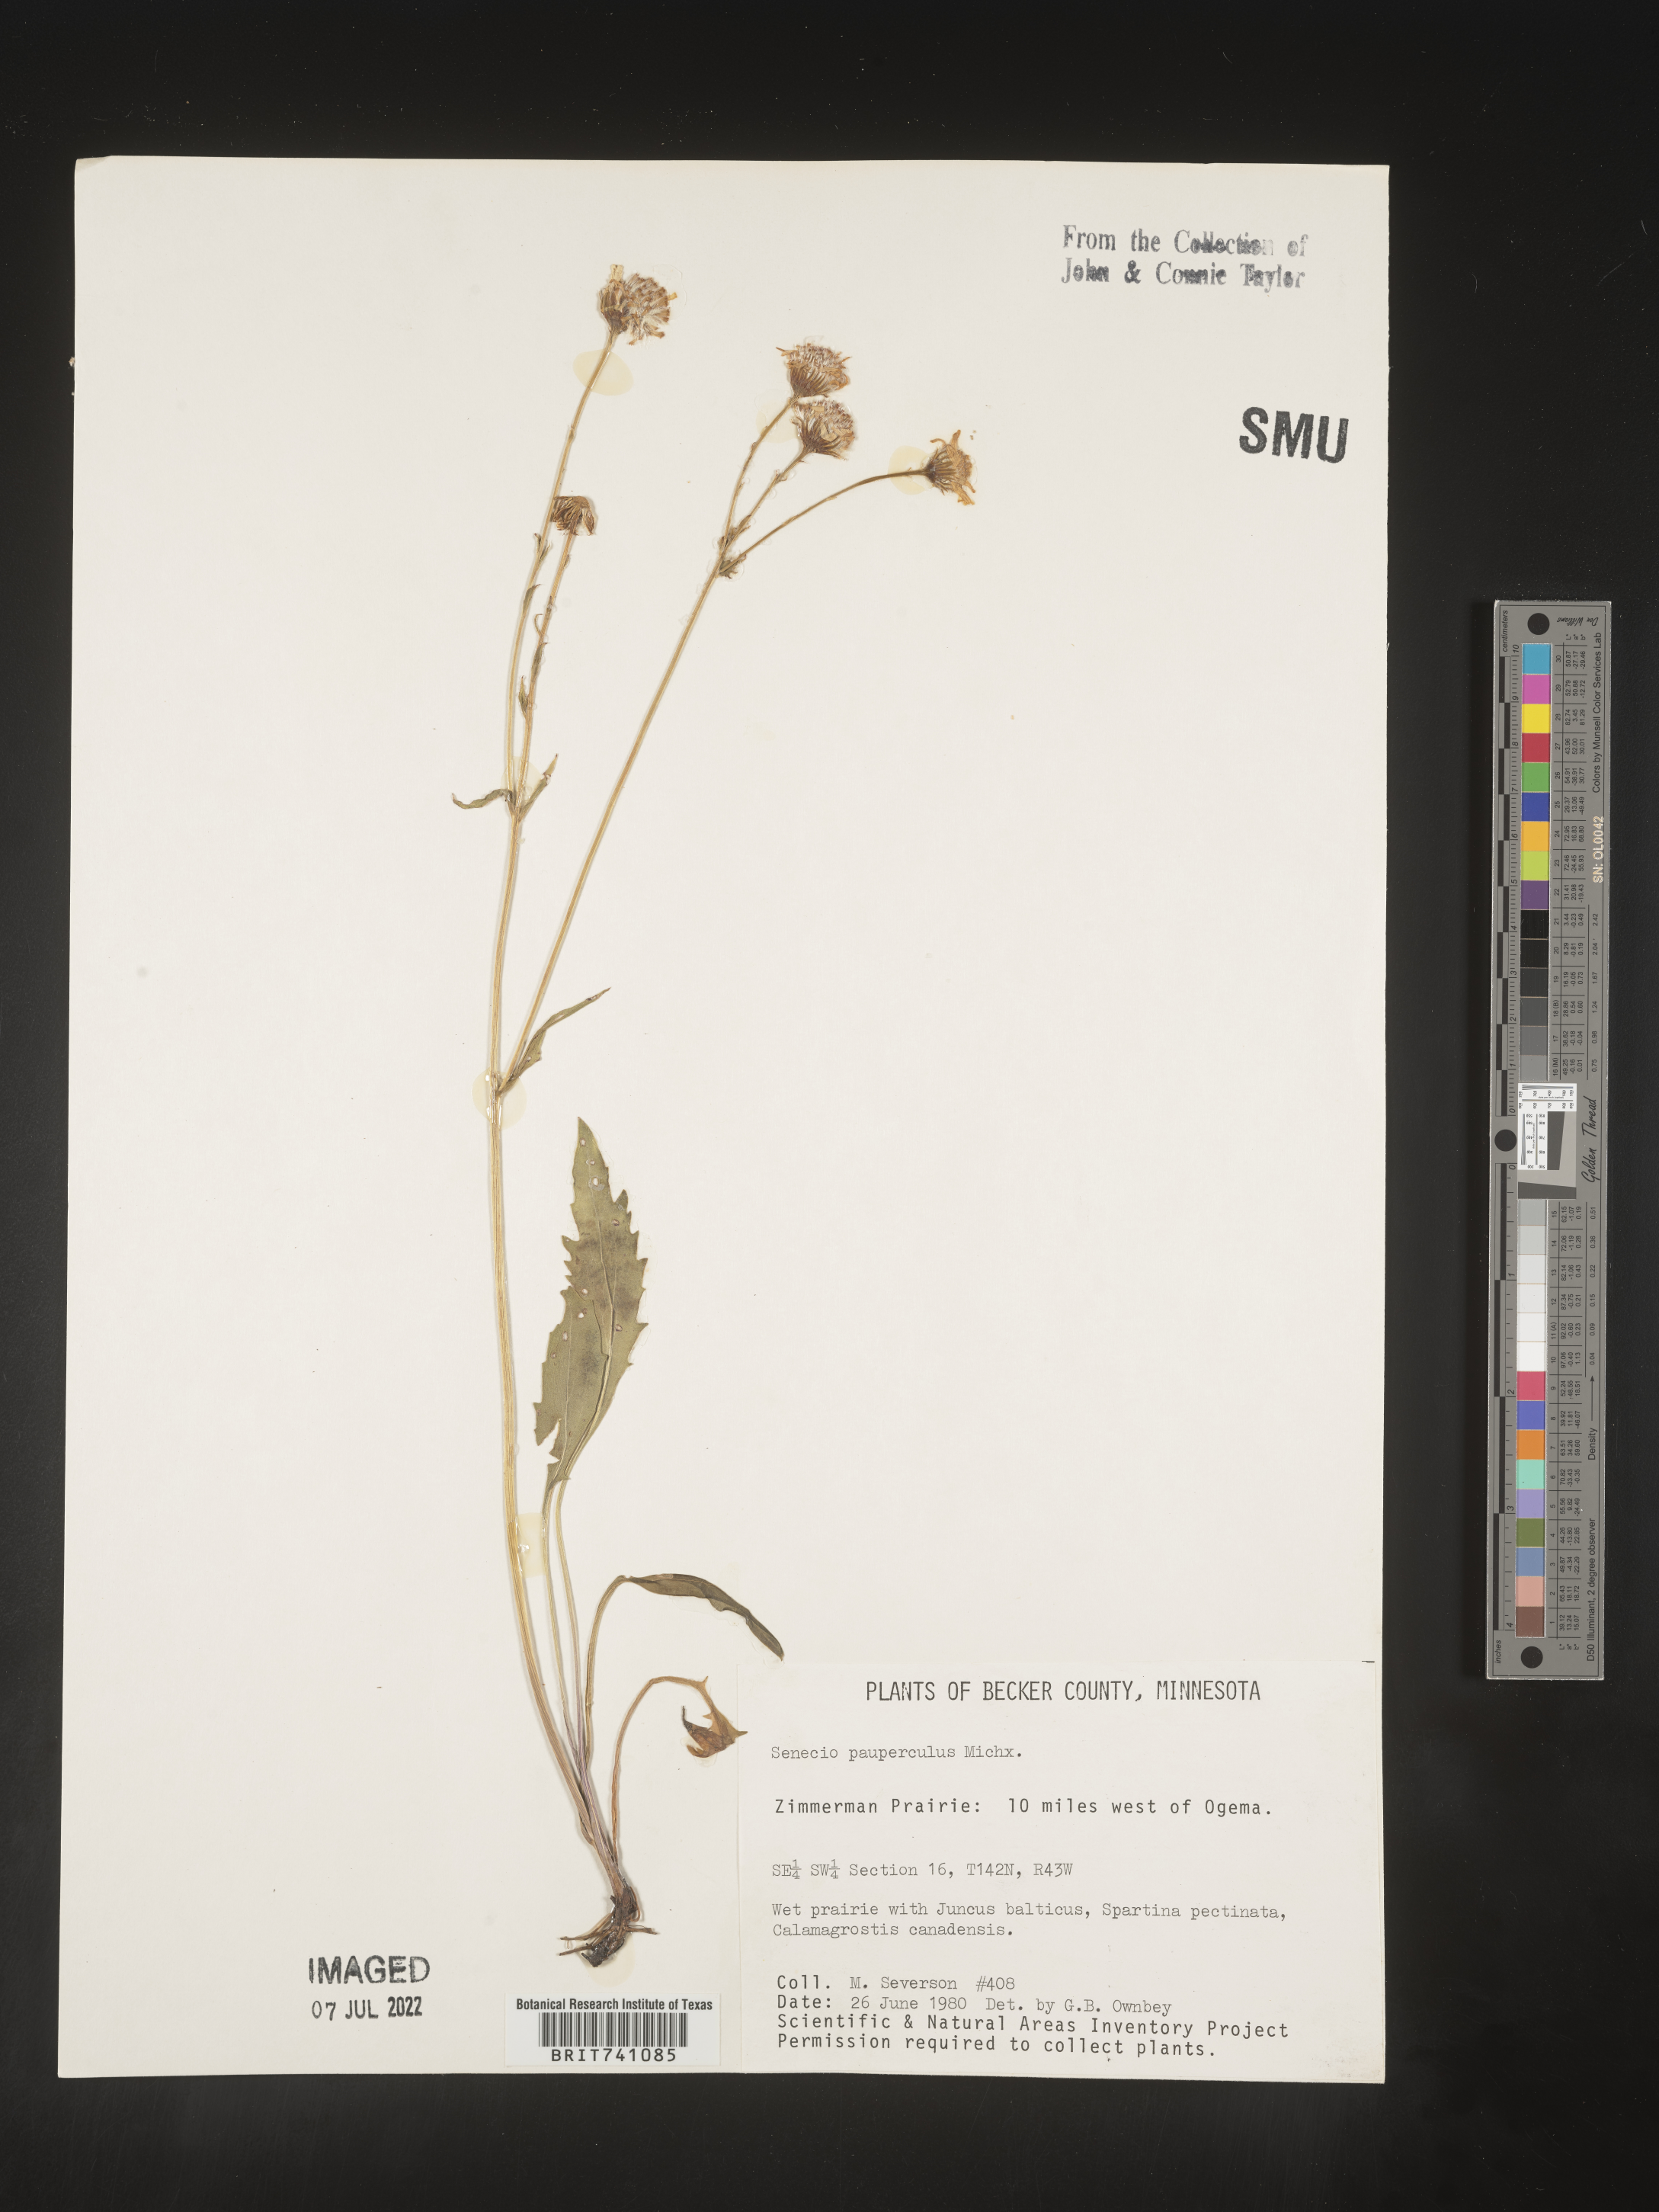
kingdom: Plantae
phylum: Tracheophyta
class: Magnoliopsida
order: Asterales
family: Asteraceae
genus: Senecio
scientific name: Senecio
